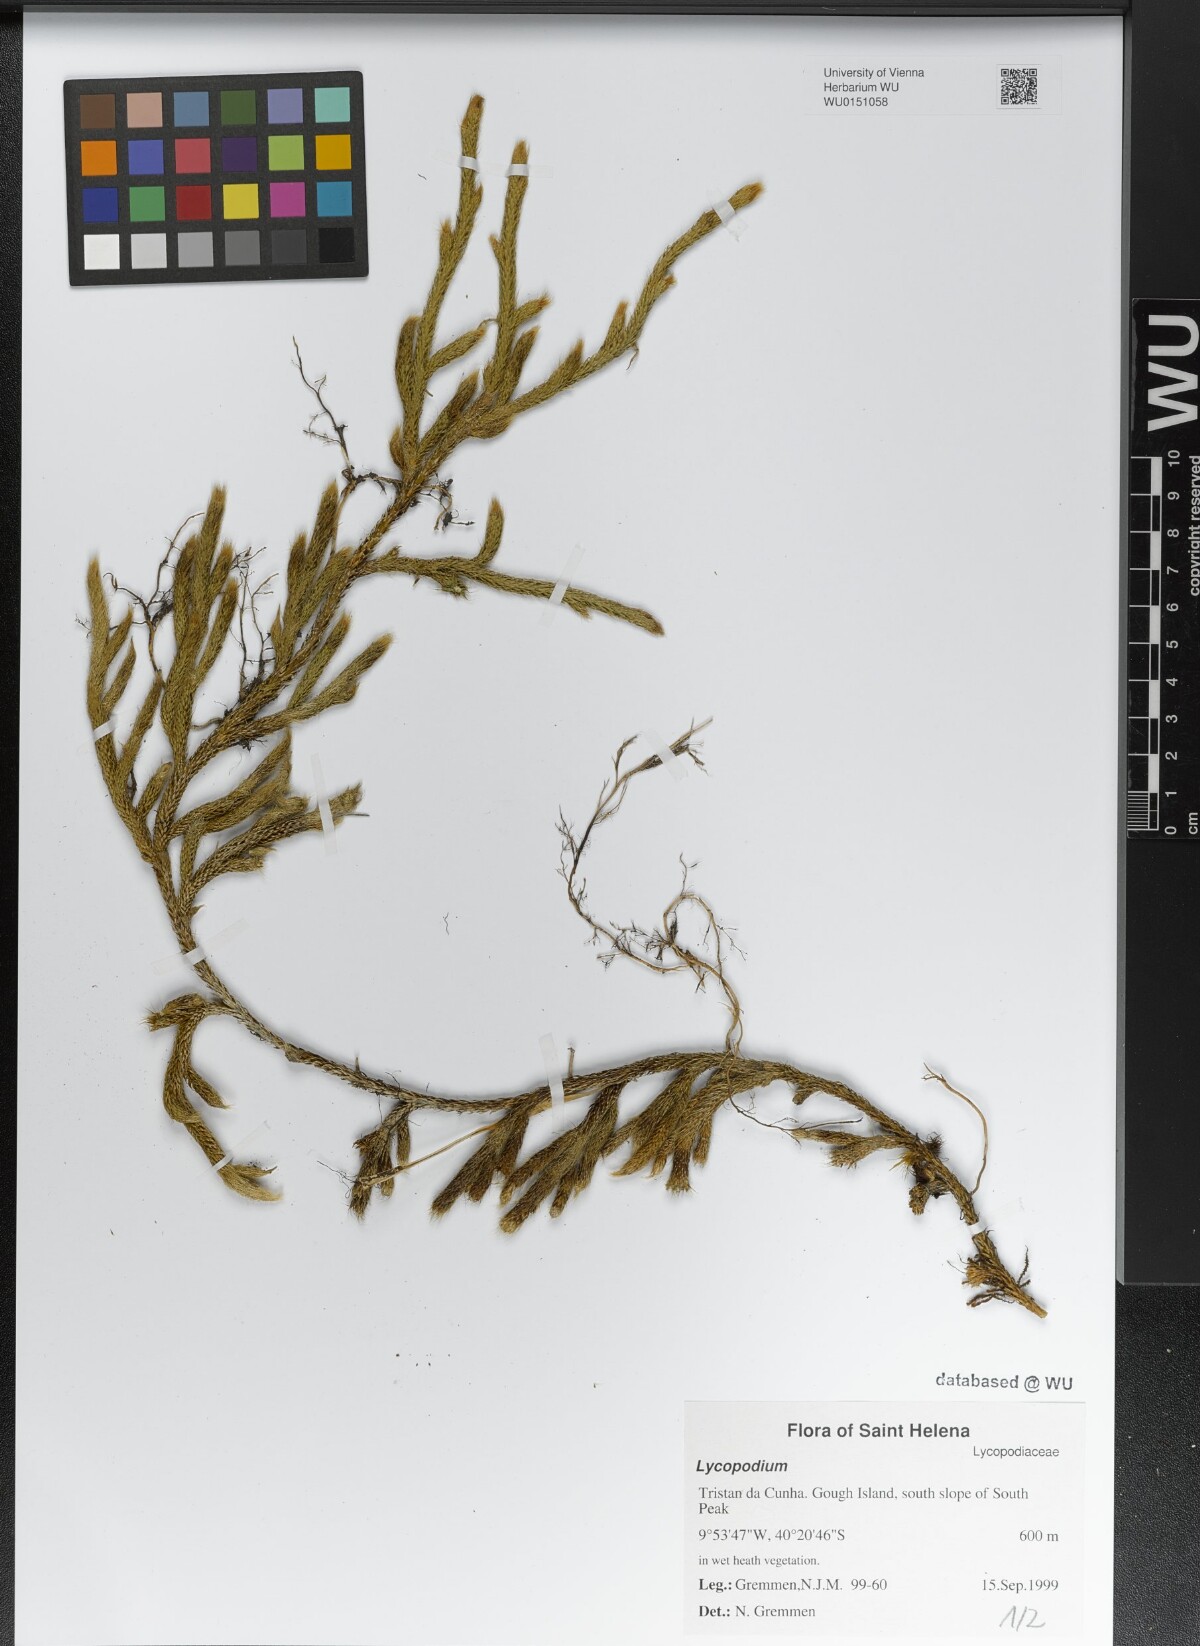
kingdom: Plantae
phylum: Tracheophyta
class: Lycopodiopsida
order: Lycopodiales
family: Lycopodiaceae
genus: Lycopodium
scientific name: Lycopodium
